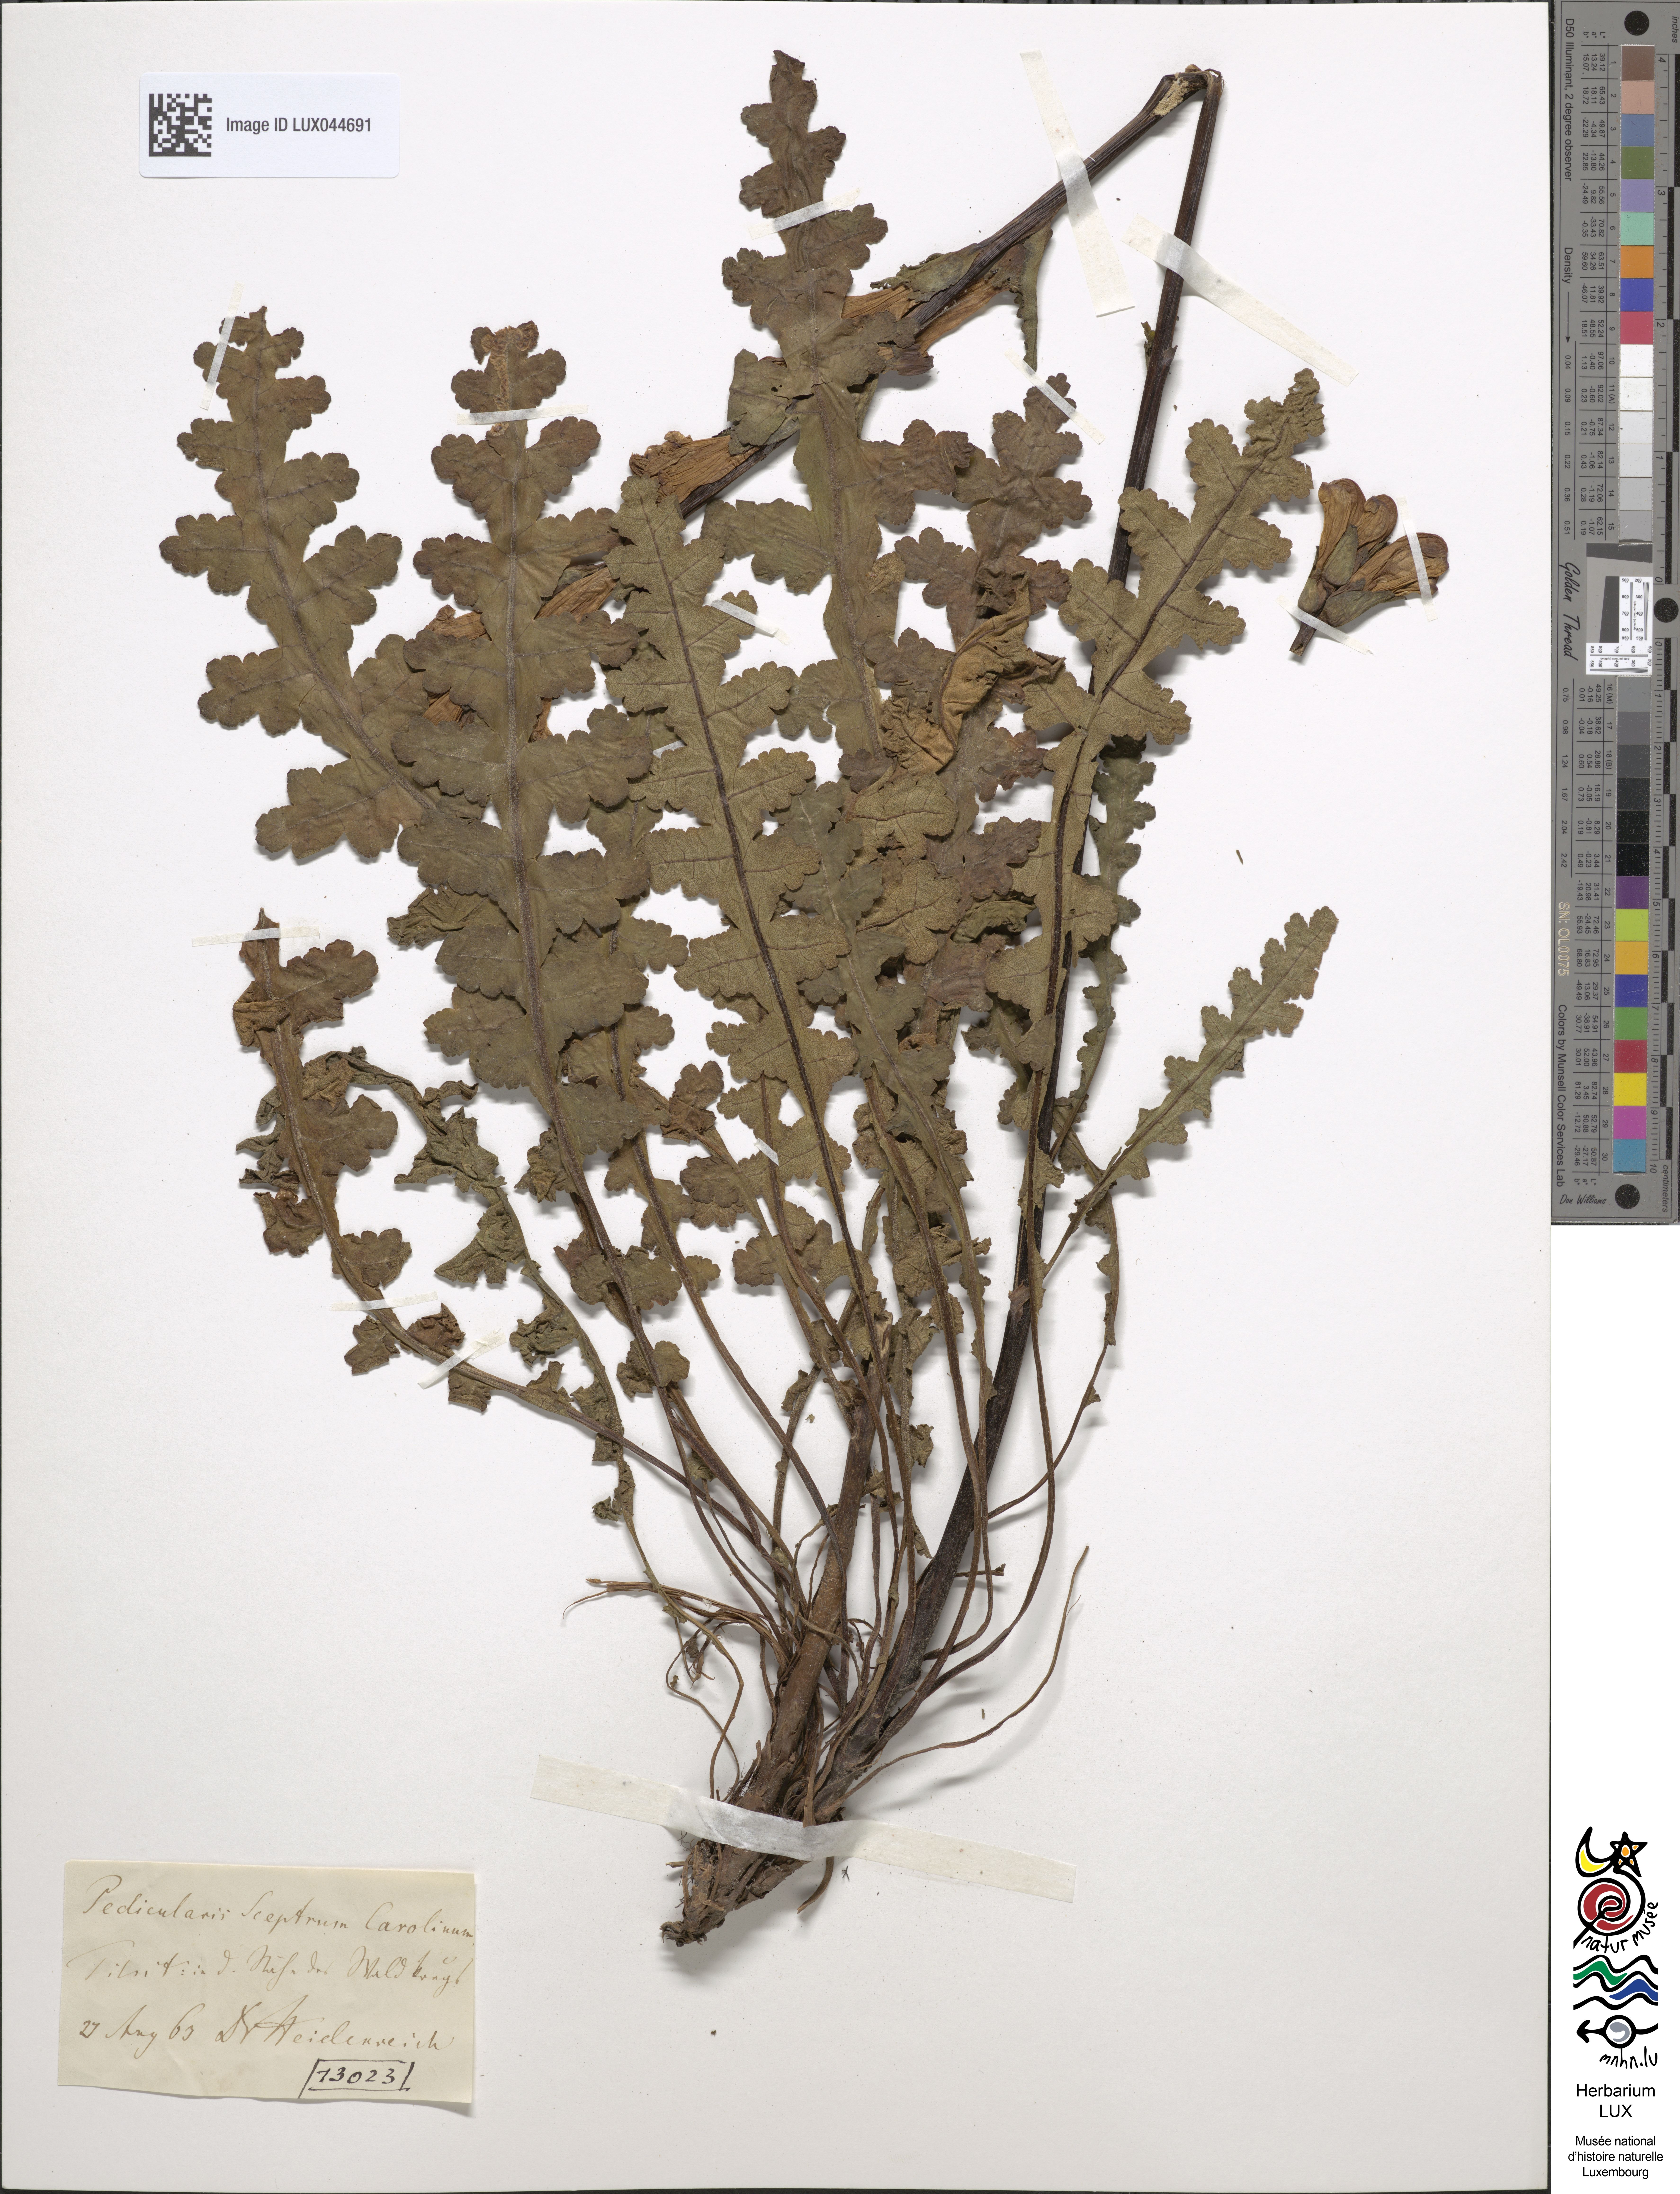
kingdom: Plantae
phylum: Tracheophyta
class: Magnoliopsida
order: Lamiales
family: Orobanchaceae
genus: Pedicularis
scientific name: Pedicularis sceptrum-carolinum
